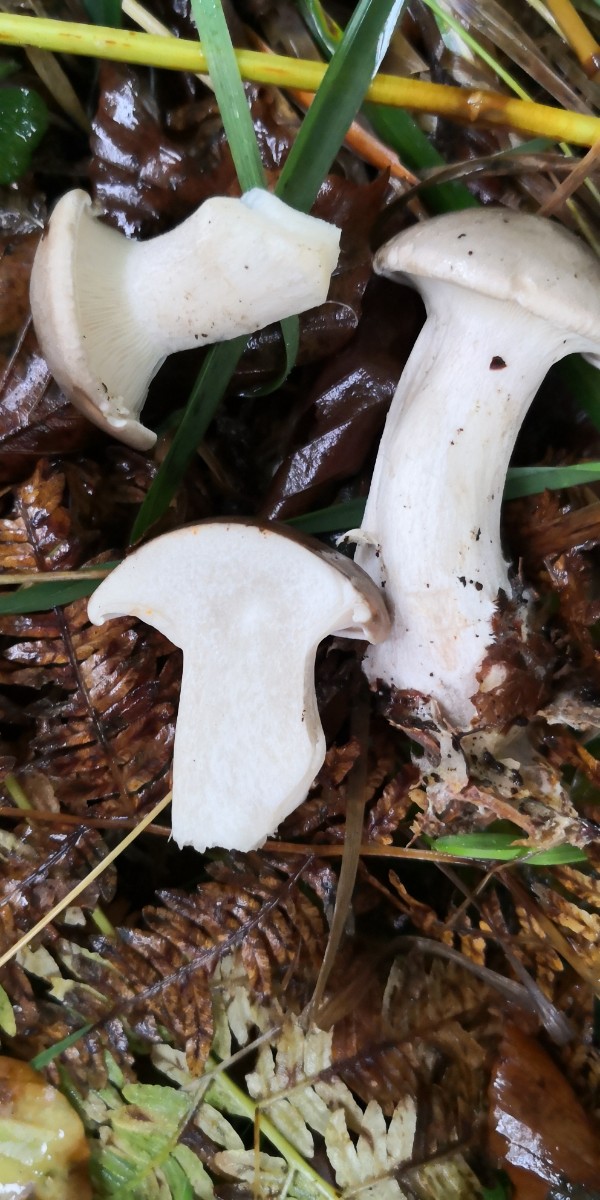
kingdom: Fungi
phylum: Basidiomycota
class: Agaricomycetes
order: Agaricales
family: Tricholomataceae
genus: Clitocybe
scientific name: Clitocybe nebularis
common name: tåge-tragthat
